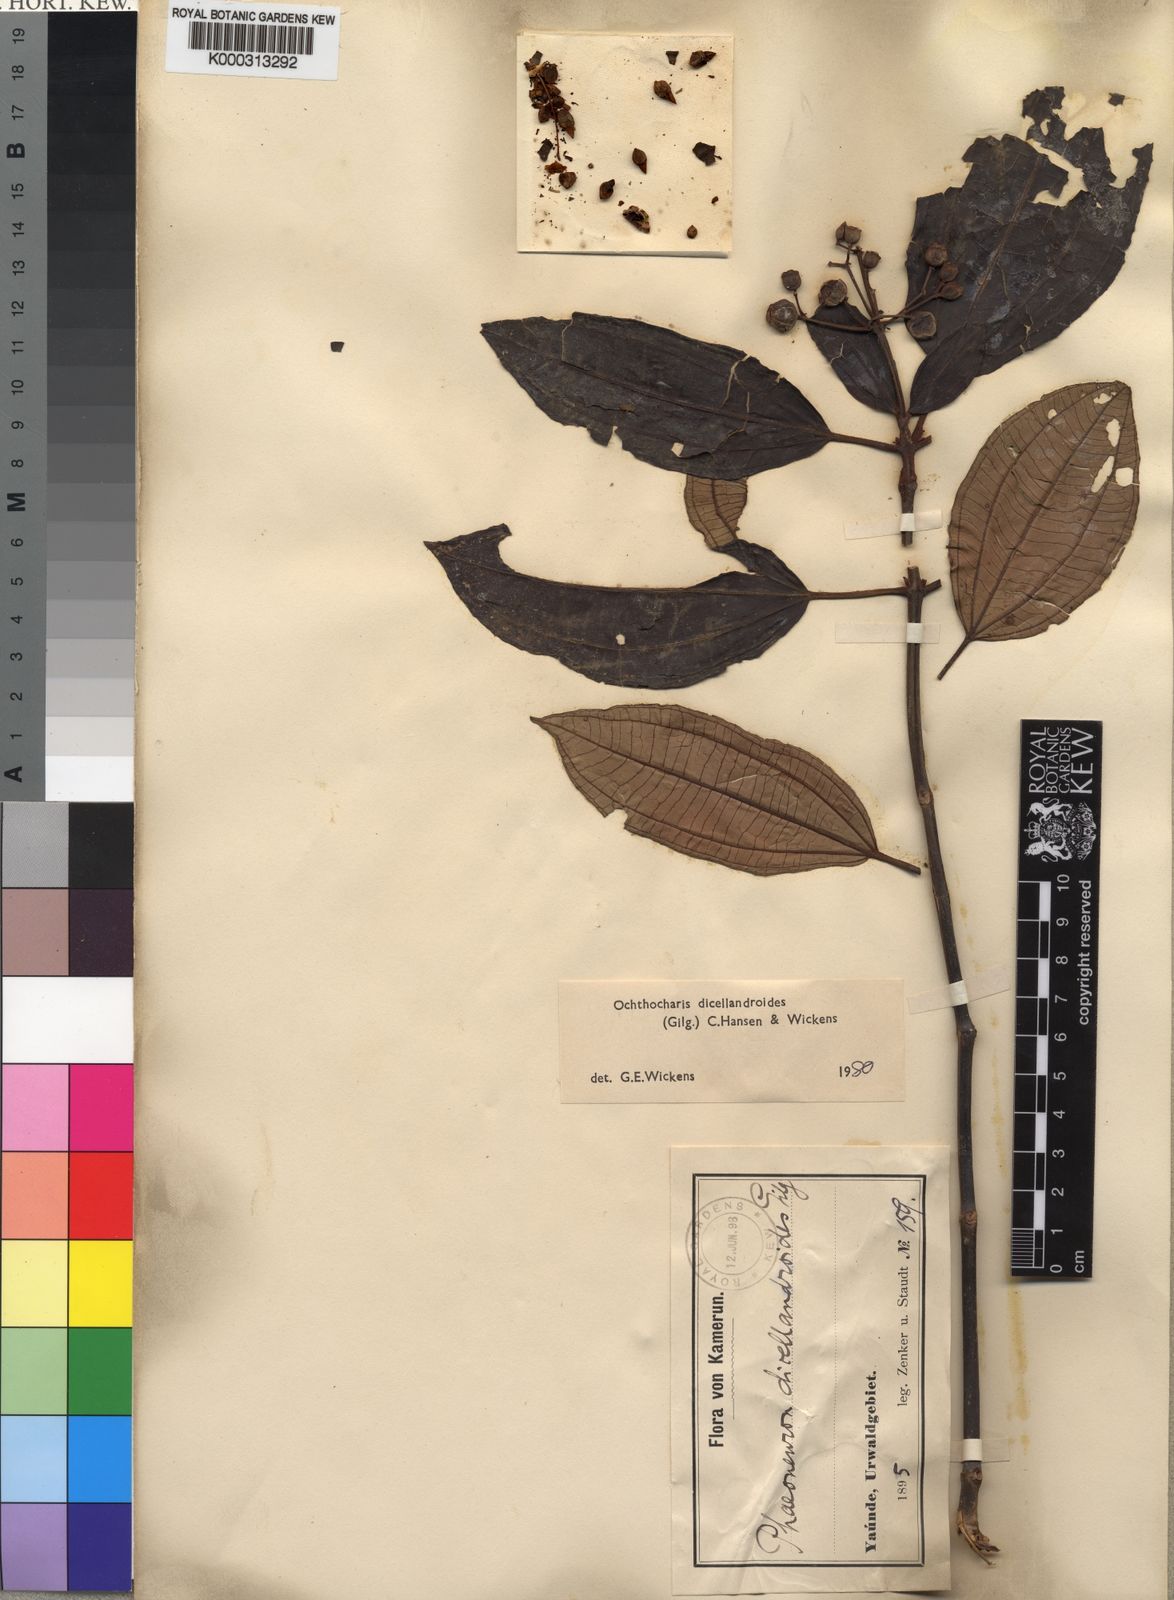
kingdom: Plantae
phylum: Tracheophyta
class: Magnoliopsida
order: Myrtales
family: Melastomataceae
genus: Ochthocharis
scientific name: Ochthocharis dicellandroides
